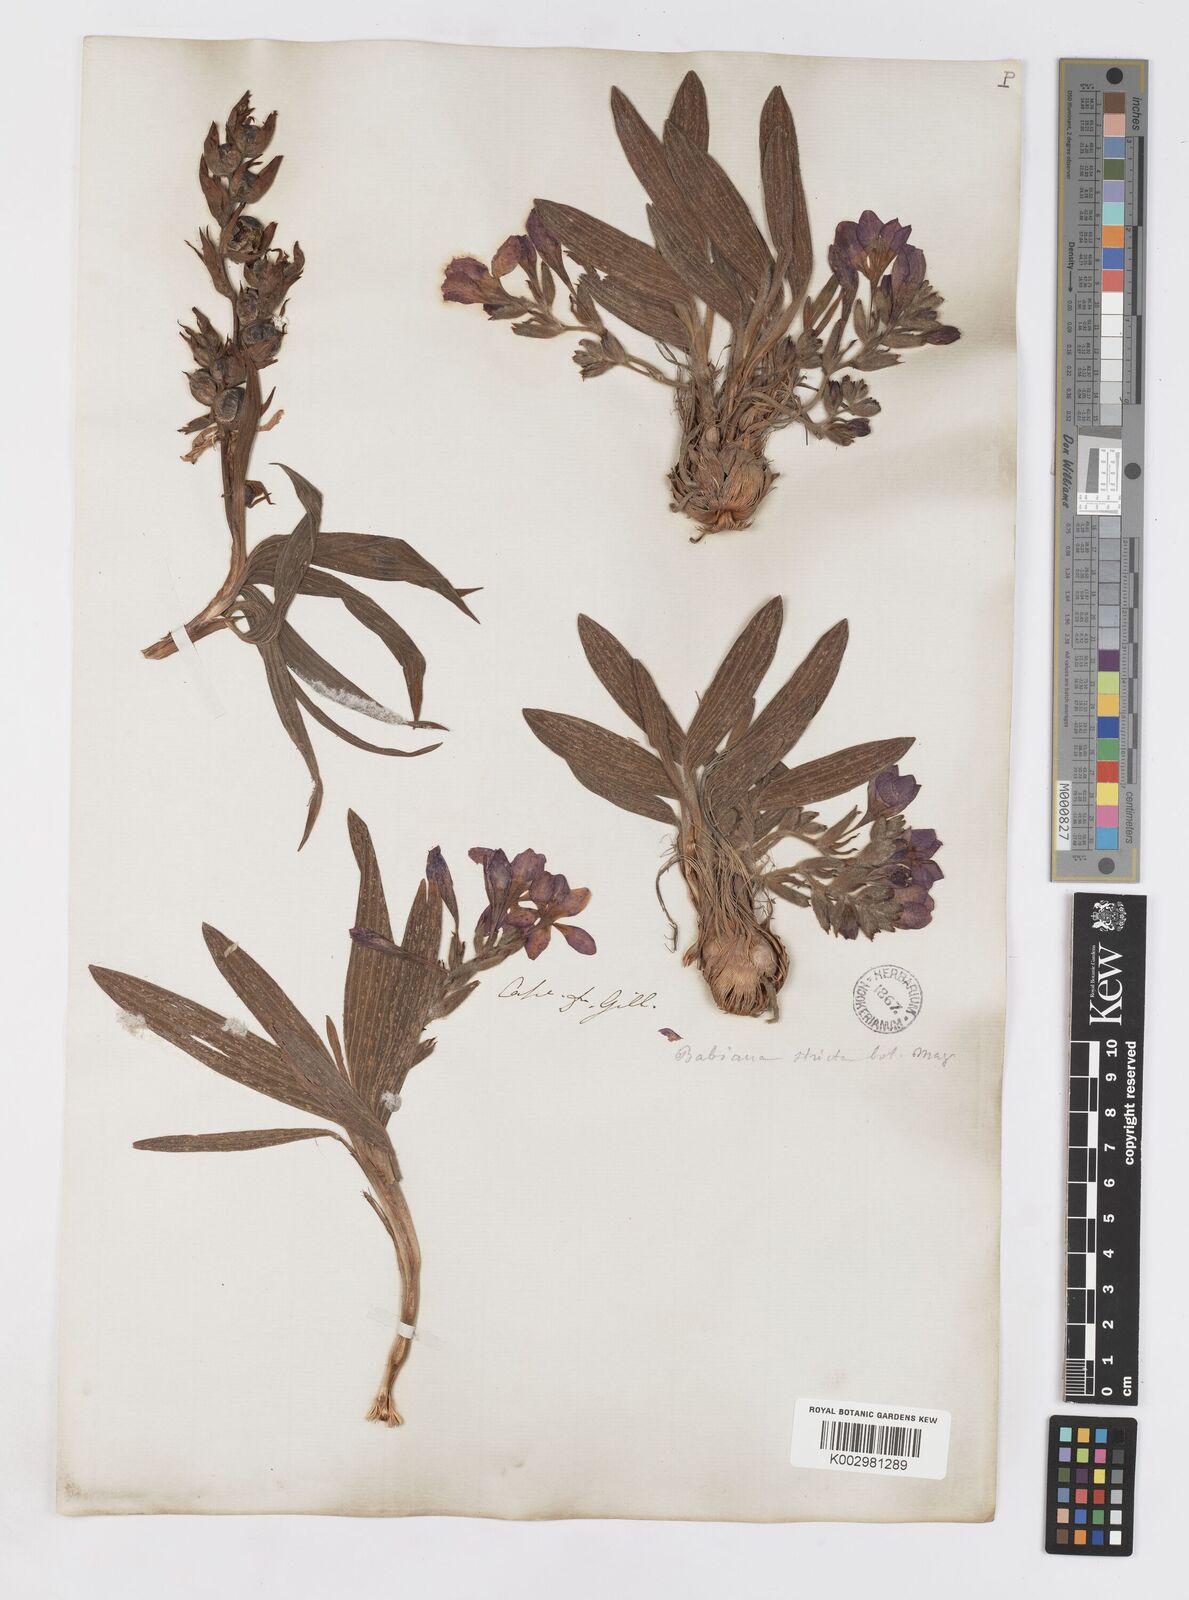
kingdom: Plantae
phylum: Tracheophyta
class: Liliopsida
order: Asparagales
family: Iridaceae
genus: Babiana
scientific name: Babiana nervosa
